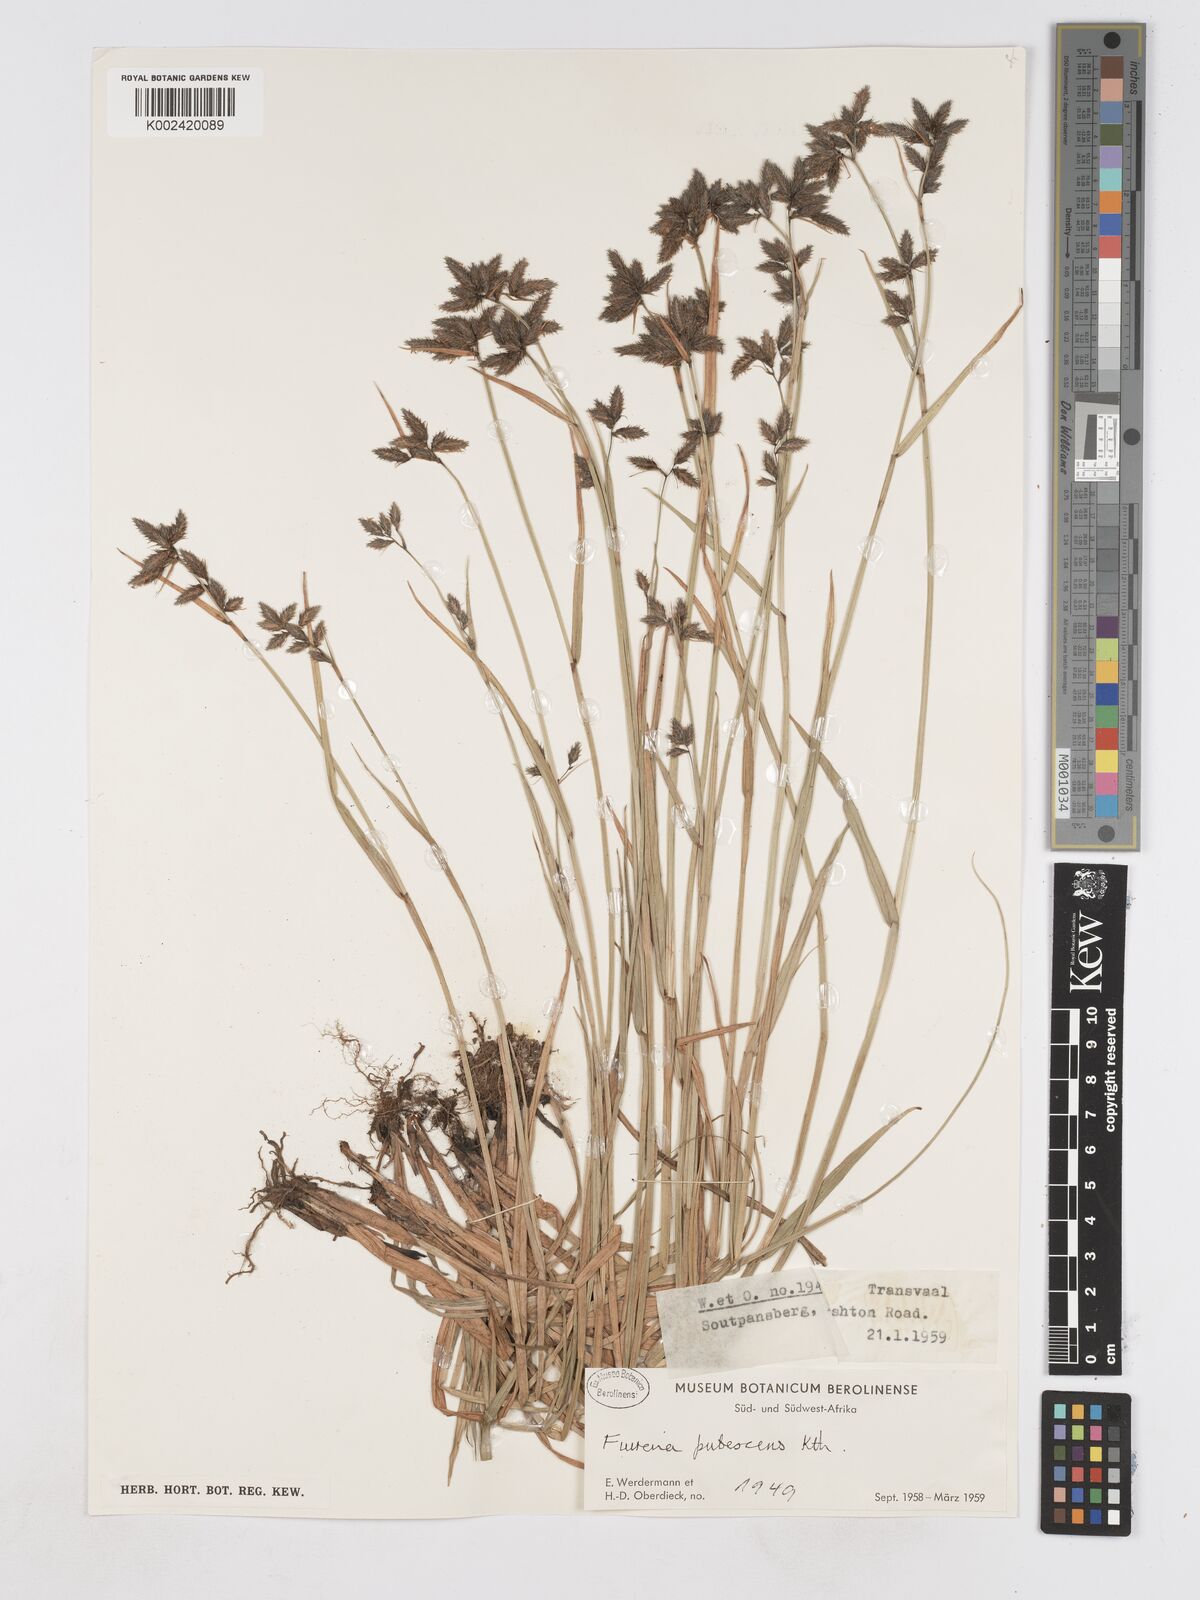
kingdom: Plantae
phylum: Tracheophyta
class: Liliopsida
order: Poales
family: Cyperaceae
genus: Fuirena
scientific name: Fuirena pubescens
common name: Hairy sedge
